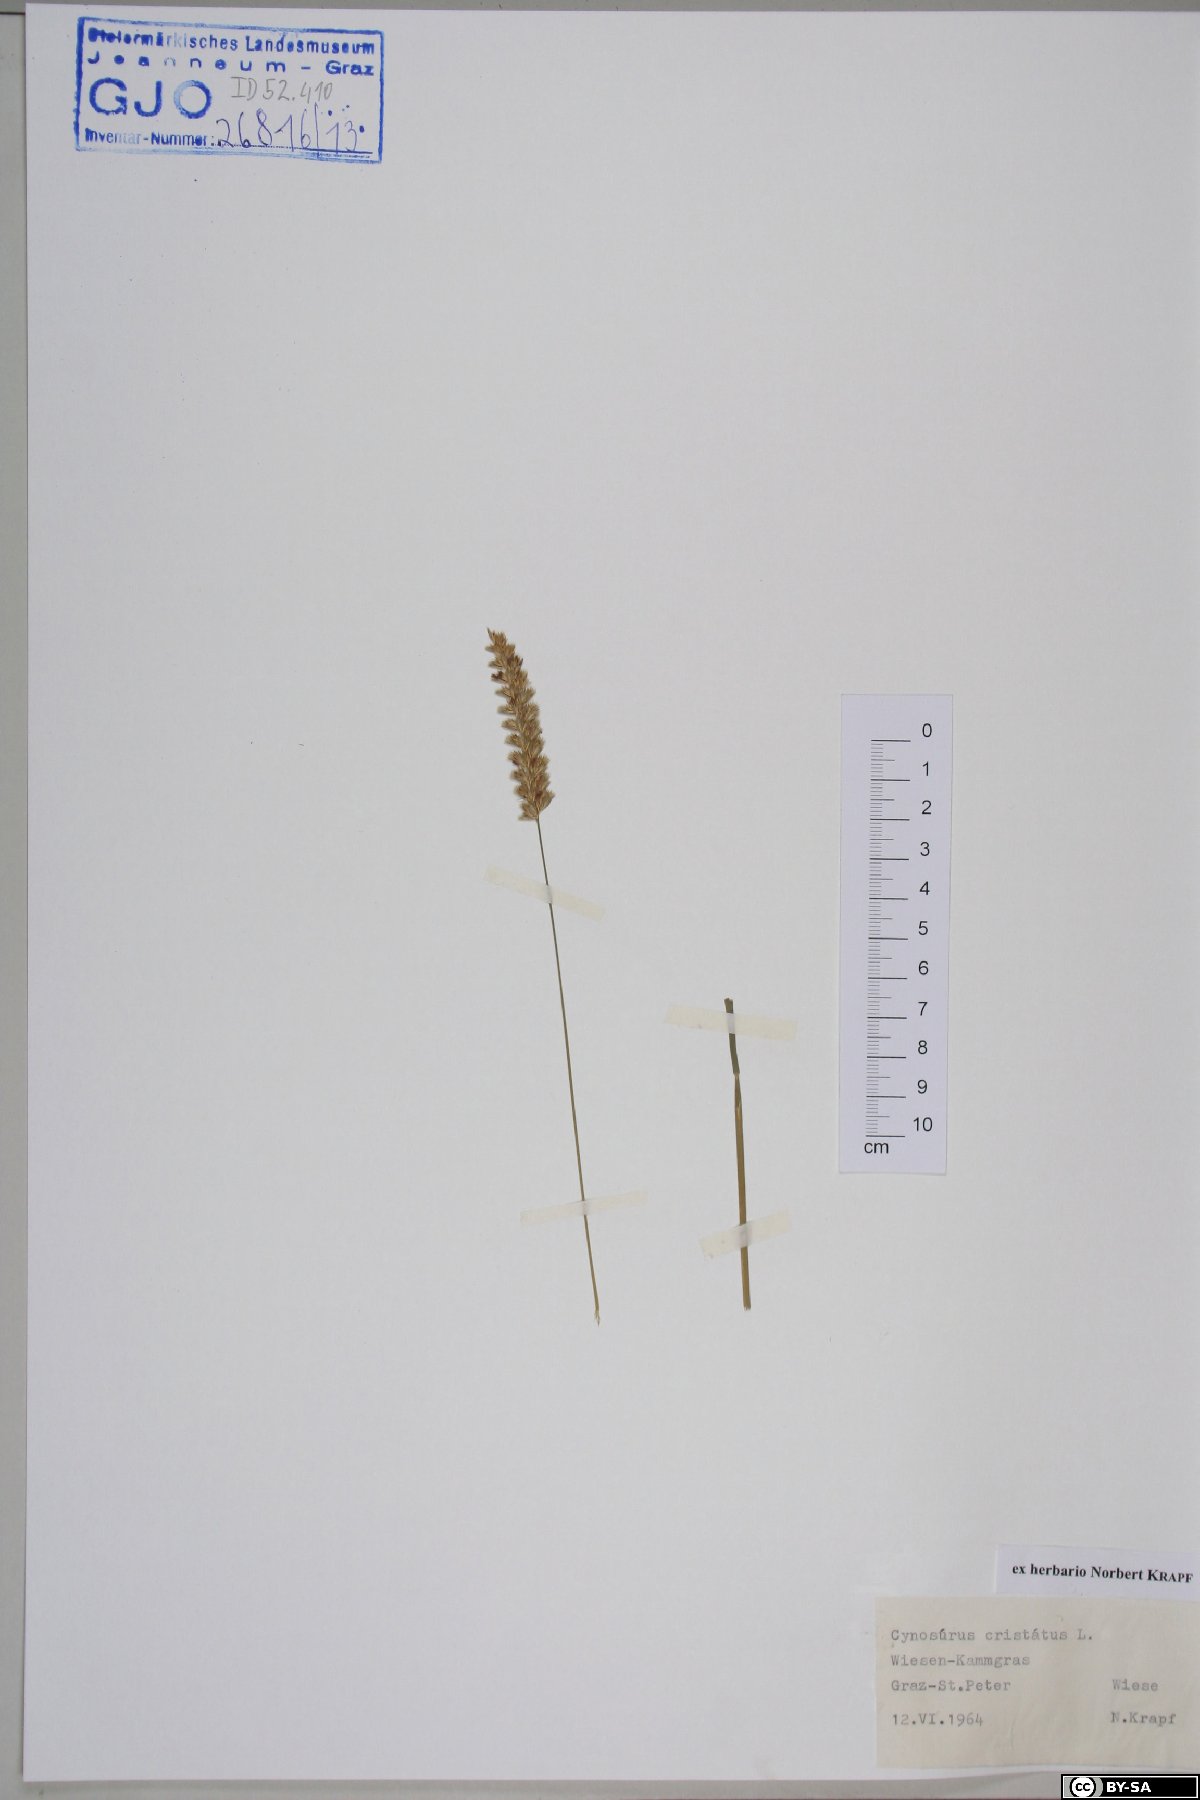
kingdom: Plantae
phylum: Tracheophyta
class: Liliopsida
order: Poales
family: Poaceae
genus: Cynosurus
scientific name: Cynosurus cristatus
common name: Crested dog's-tail
